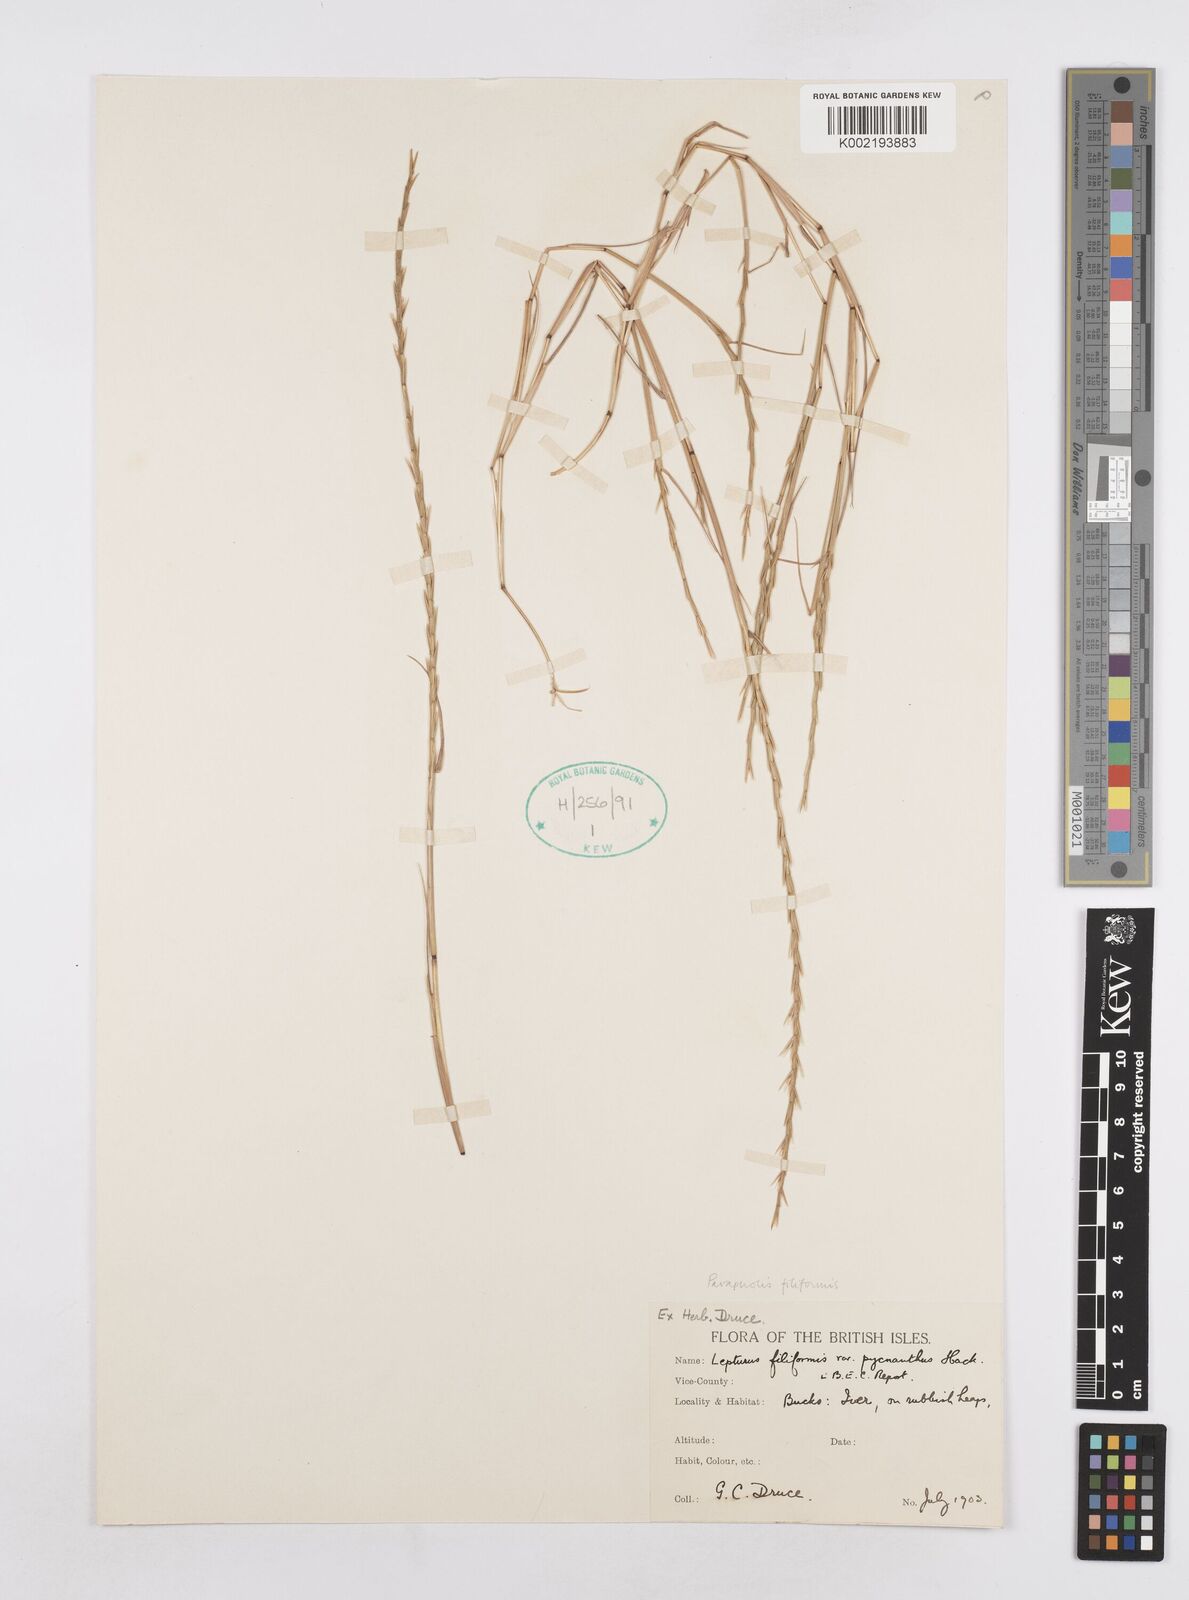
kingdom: Plantae
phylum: Tracheophyta
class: Liliopsida
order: Poales
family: Poaceae
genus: Parapholis
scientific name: Parapholis pycnantha
